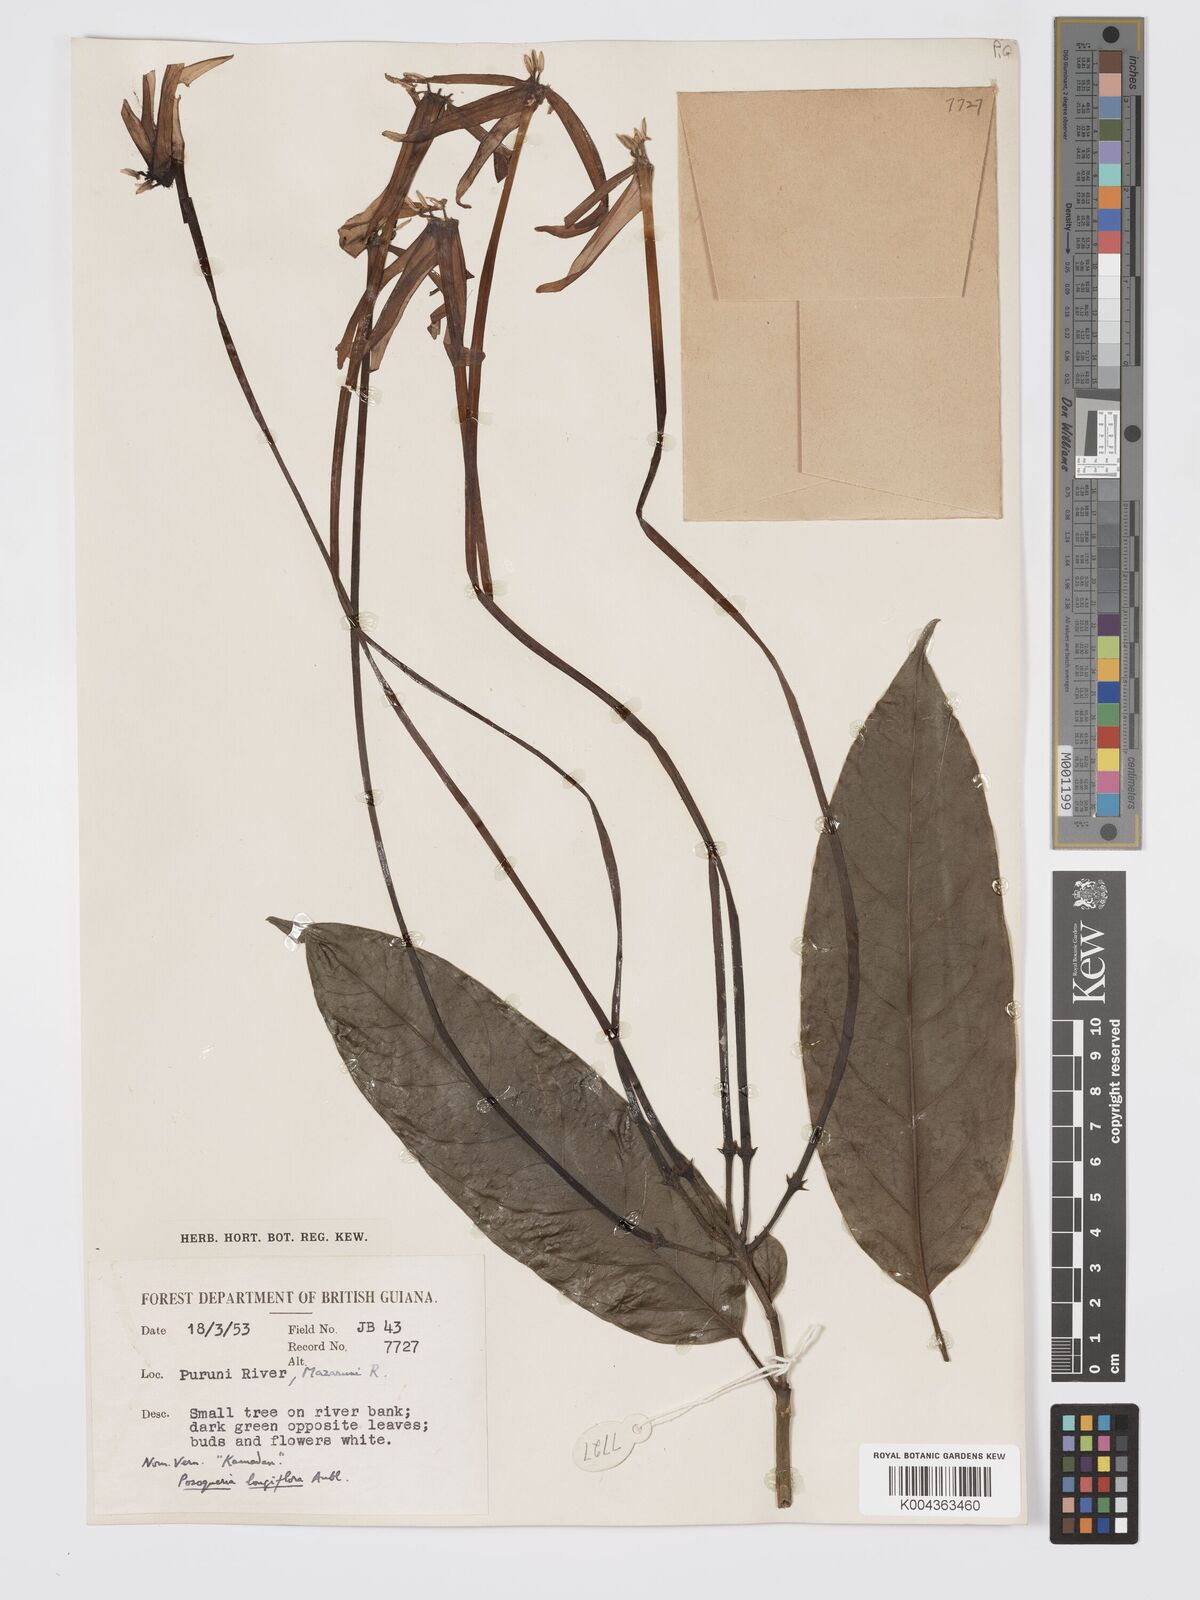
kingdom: Plantae
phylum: Tracheophyta
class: Magnoliopsida
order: Gentianales
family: Rubiaceae
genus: Posoqueria
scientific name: Posoqueria
